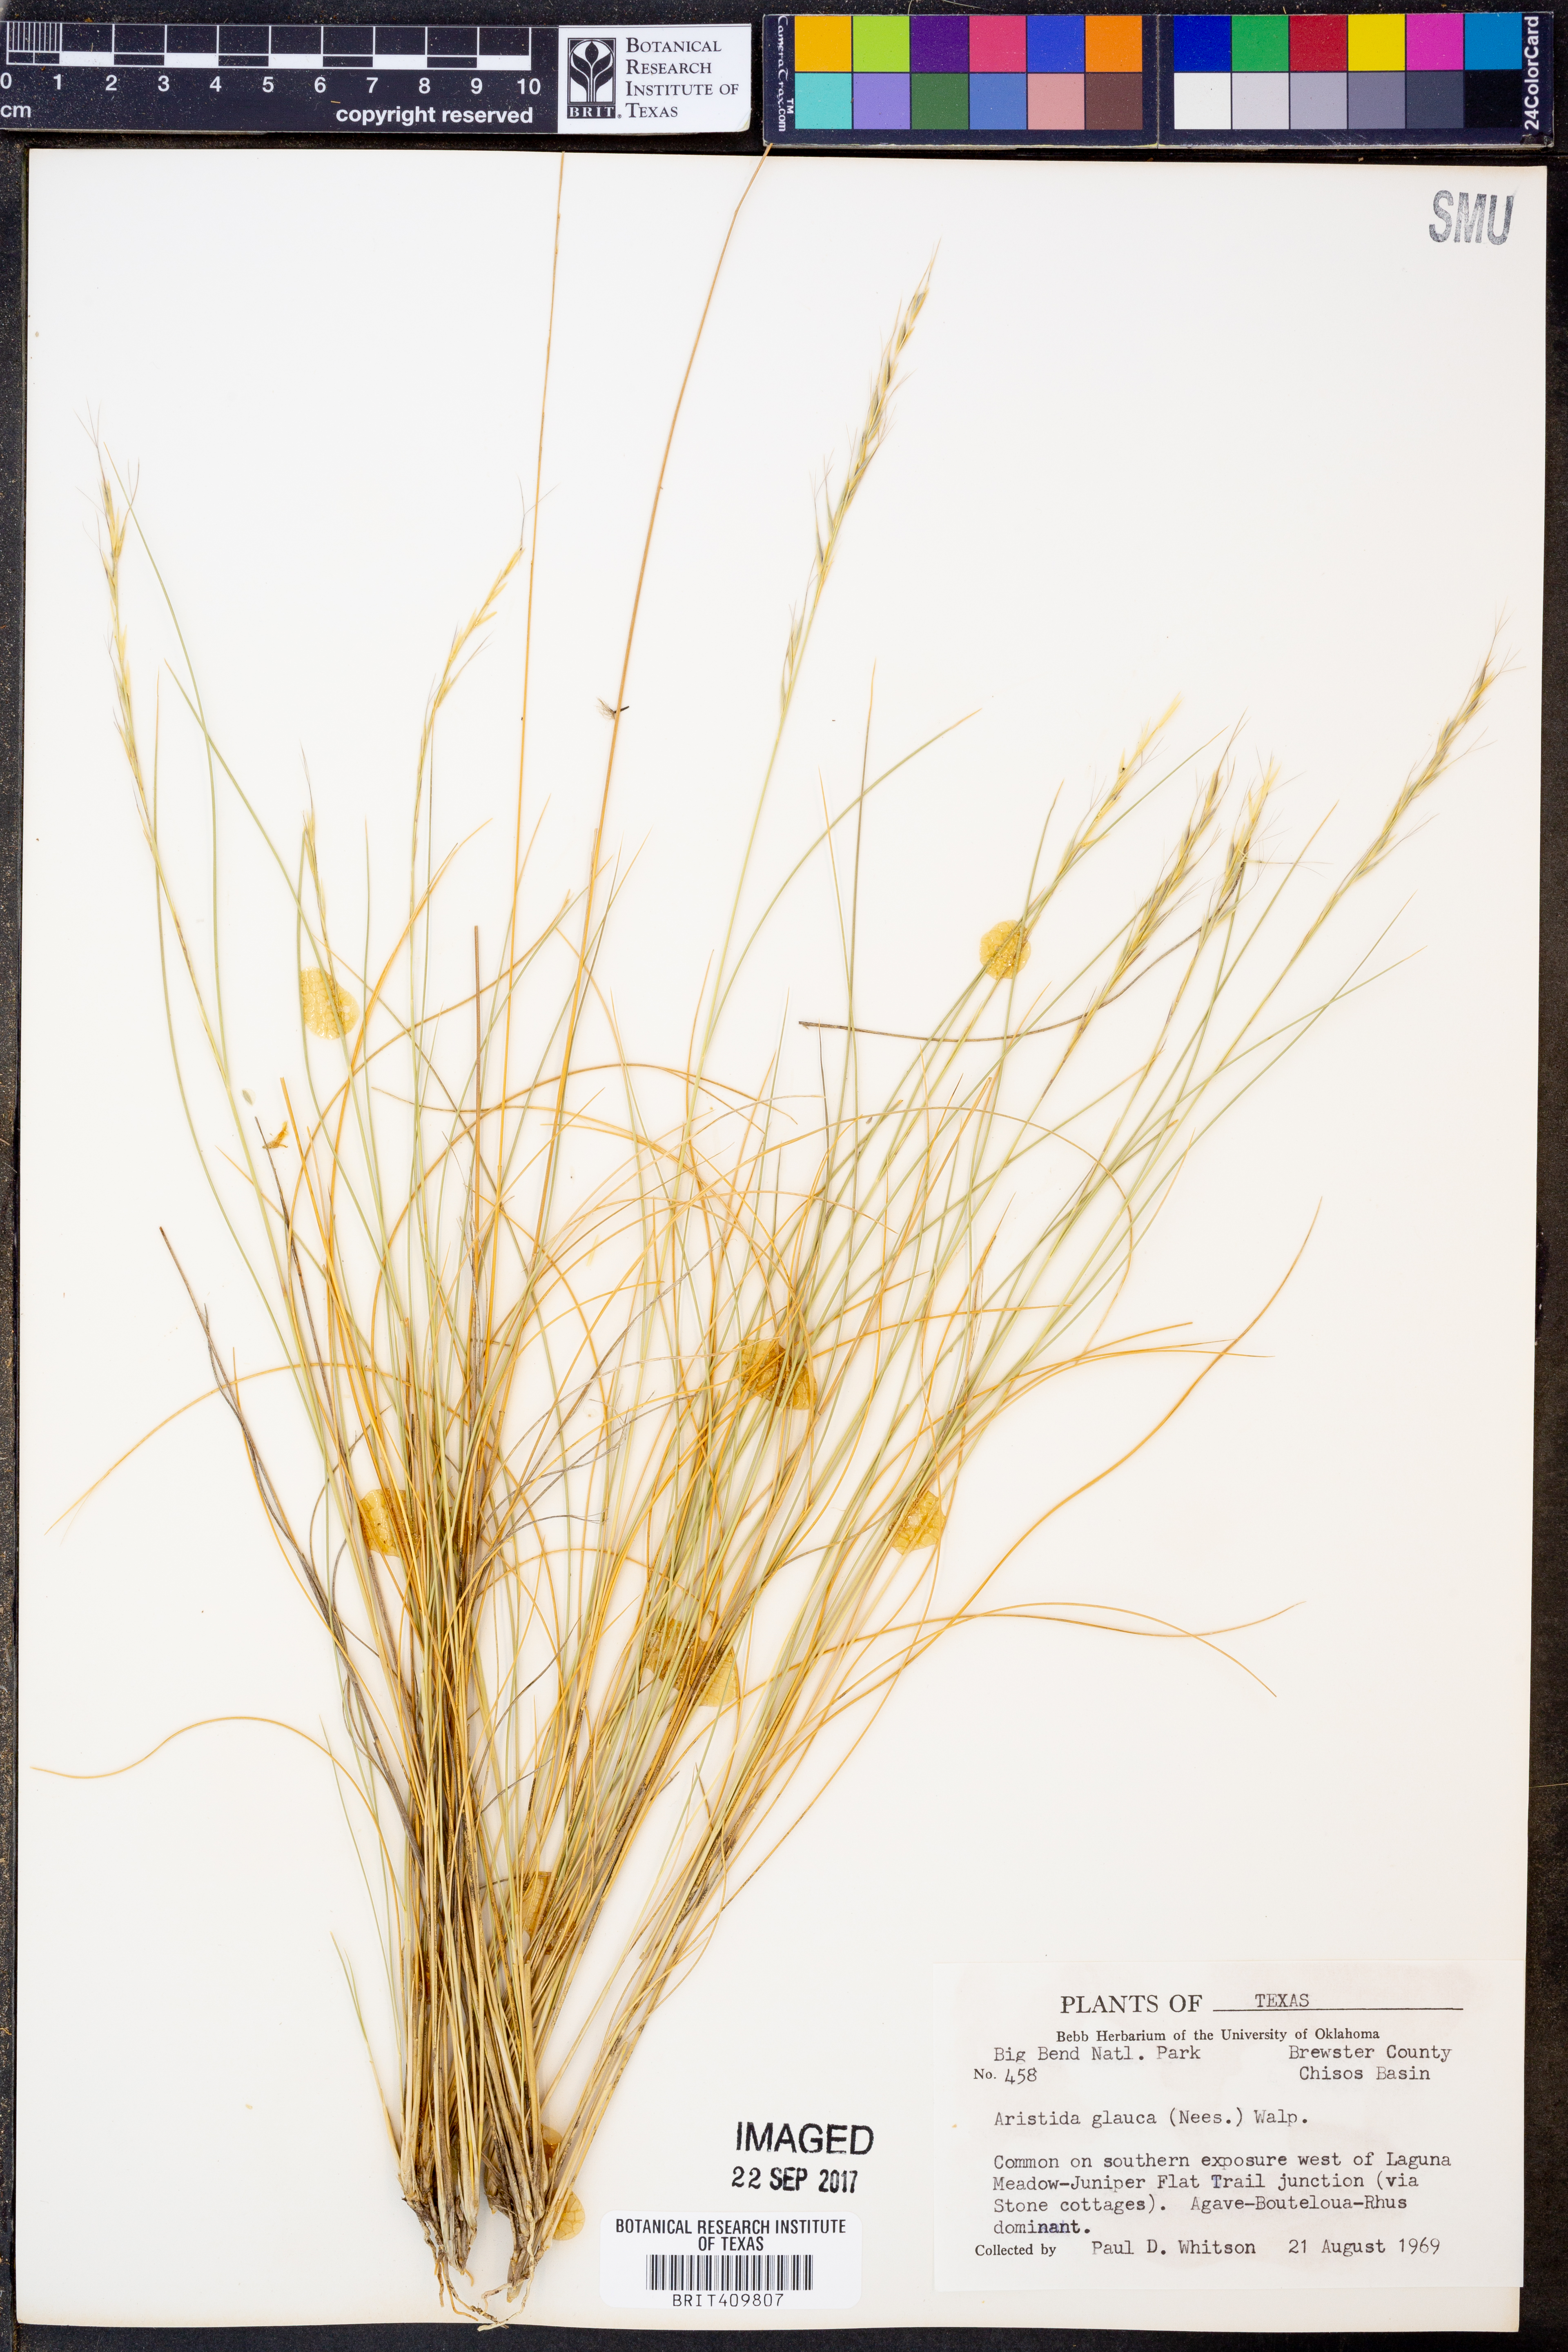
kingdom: Plantae
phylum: Tracheophyta
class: Liliopsida
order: Poales
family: Poaceae
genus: Aristida
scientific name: Aristida glauca
